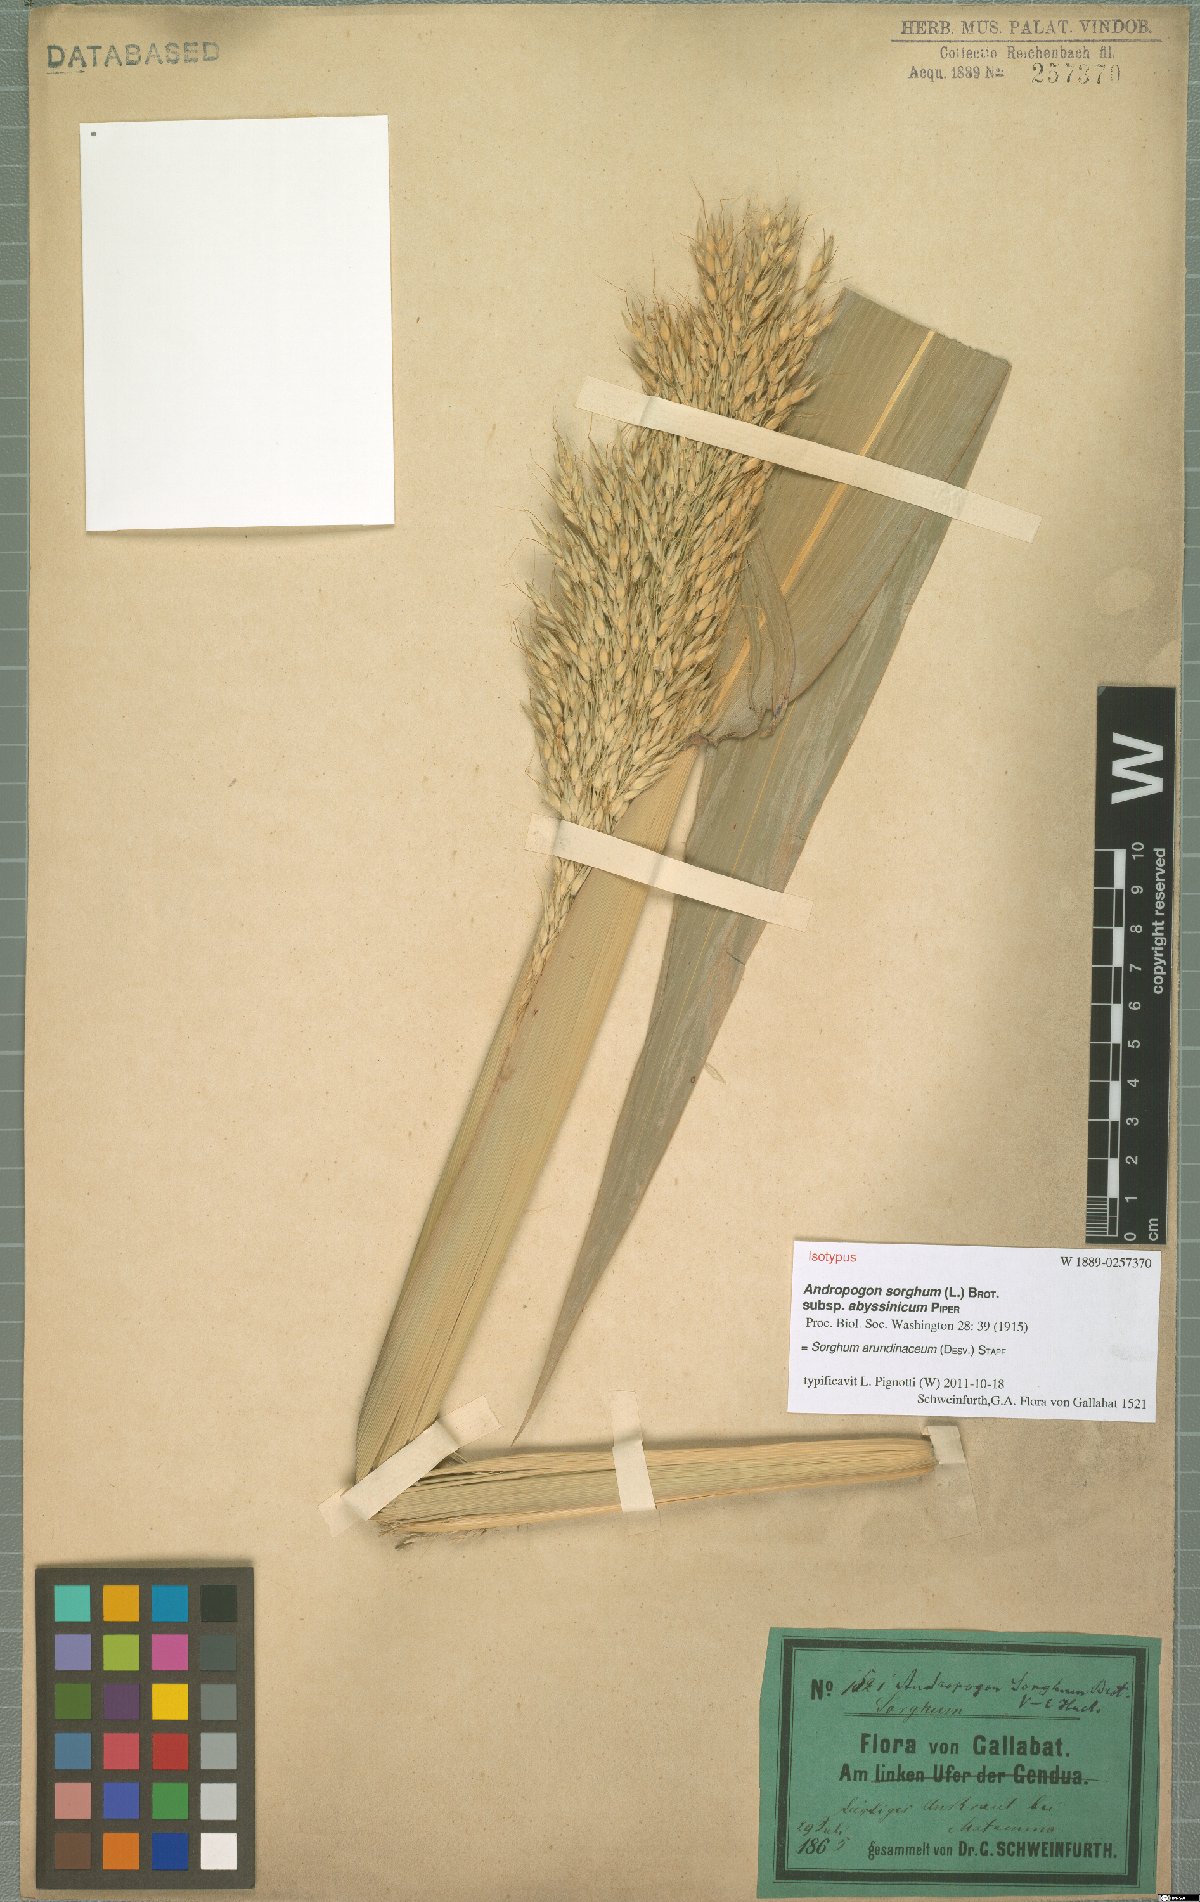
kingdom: Plantae
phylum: Tracheophyta
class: Liliopsida
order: Poales
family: Poaceae
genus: Sorghum
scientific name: Sorghum arundinaceum
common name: Sorghum
